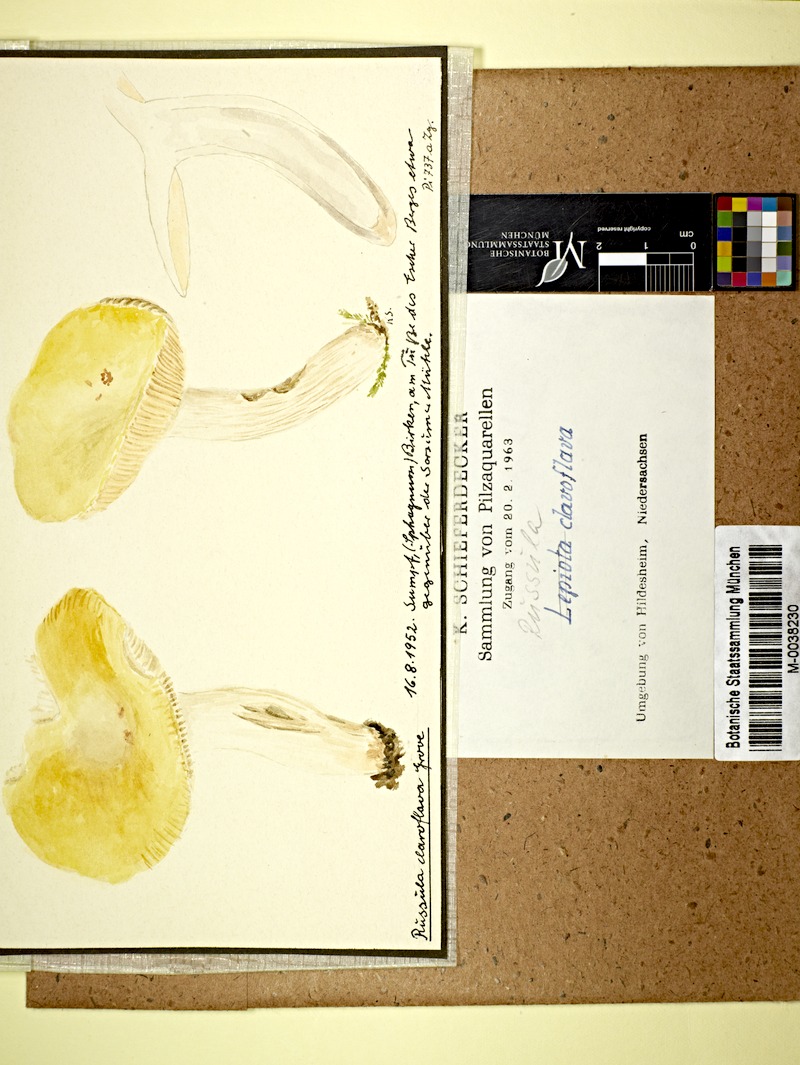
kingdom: Plantae
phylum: Tracheophyta
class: Magnoliopsida
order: Fagales
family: Betulaceae
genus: Betula
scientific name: Betula
